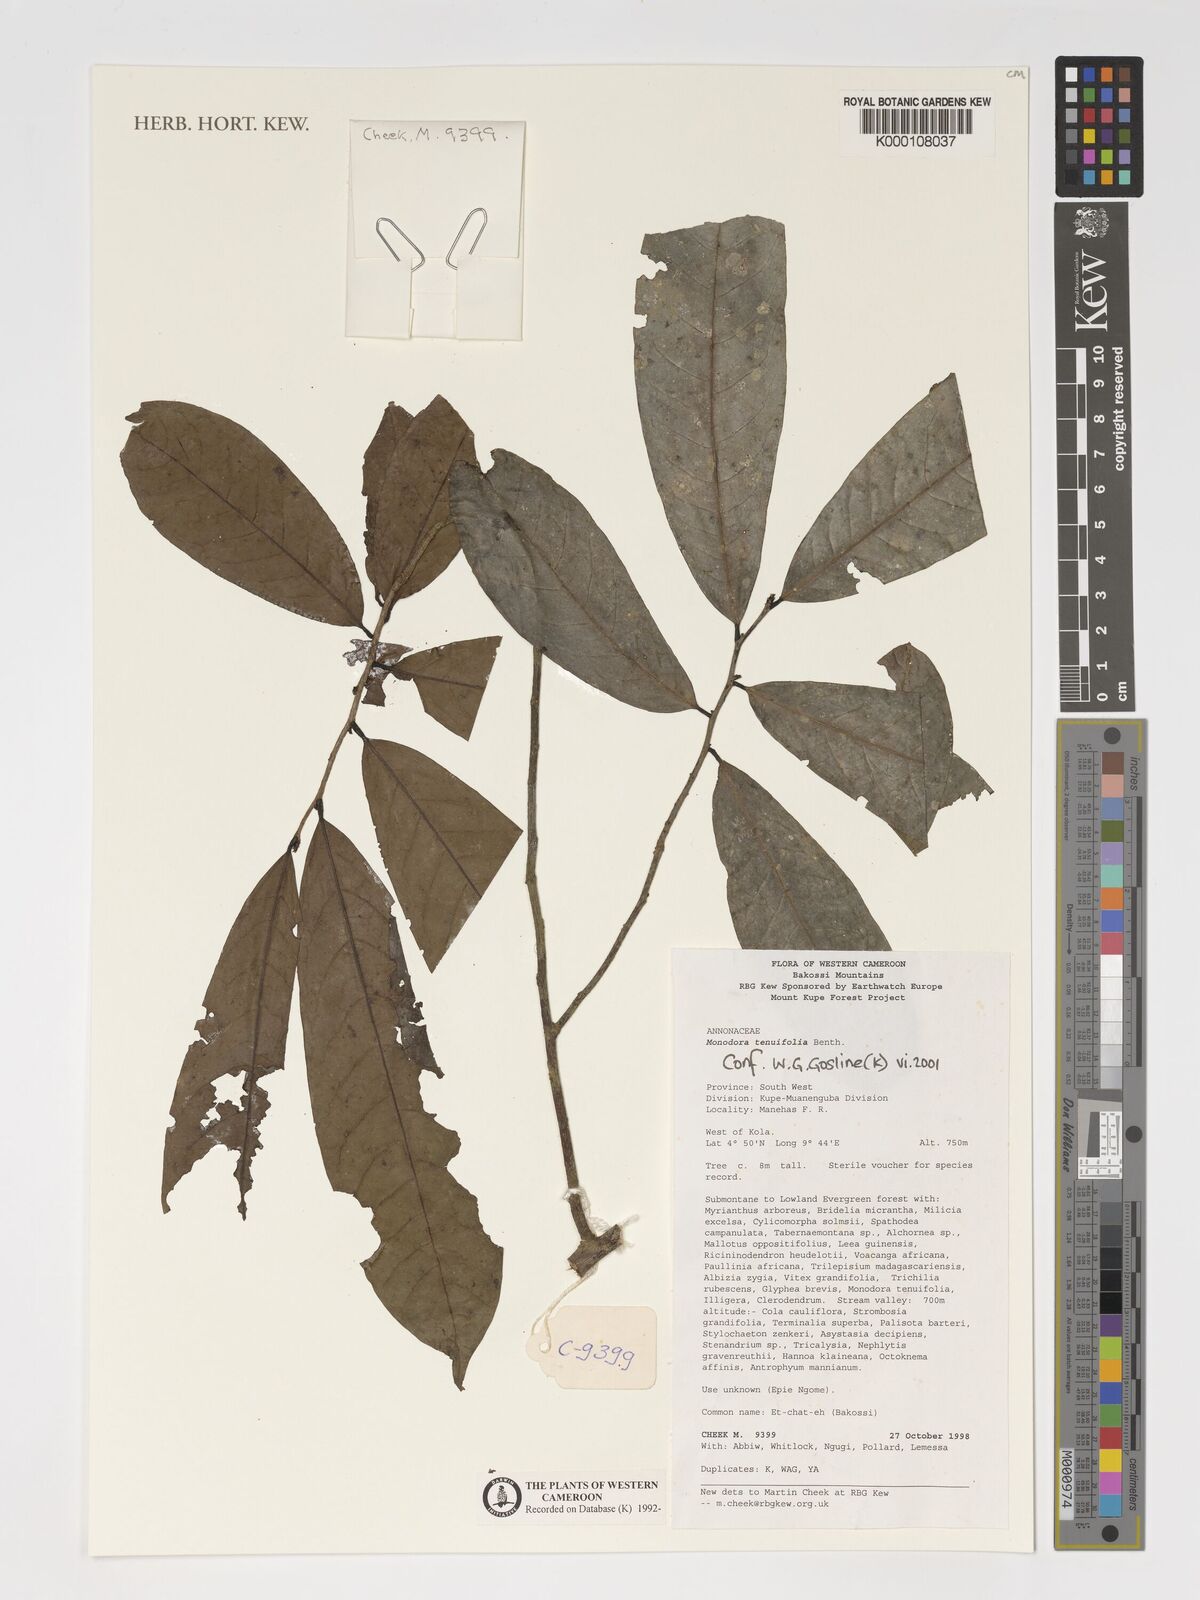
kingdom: Plantae
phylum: Tracheophyta
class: Magnoliopsida
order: Magnoliales
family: Annonaceae
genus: Monodora
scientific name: Monodora tenuifolia
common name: Orchidtree
